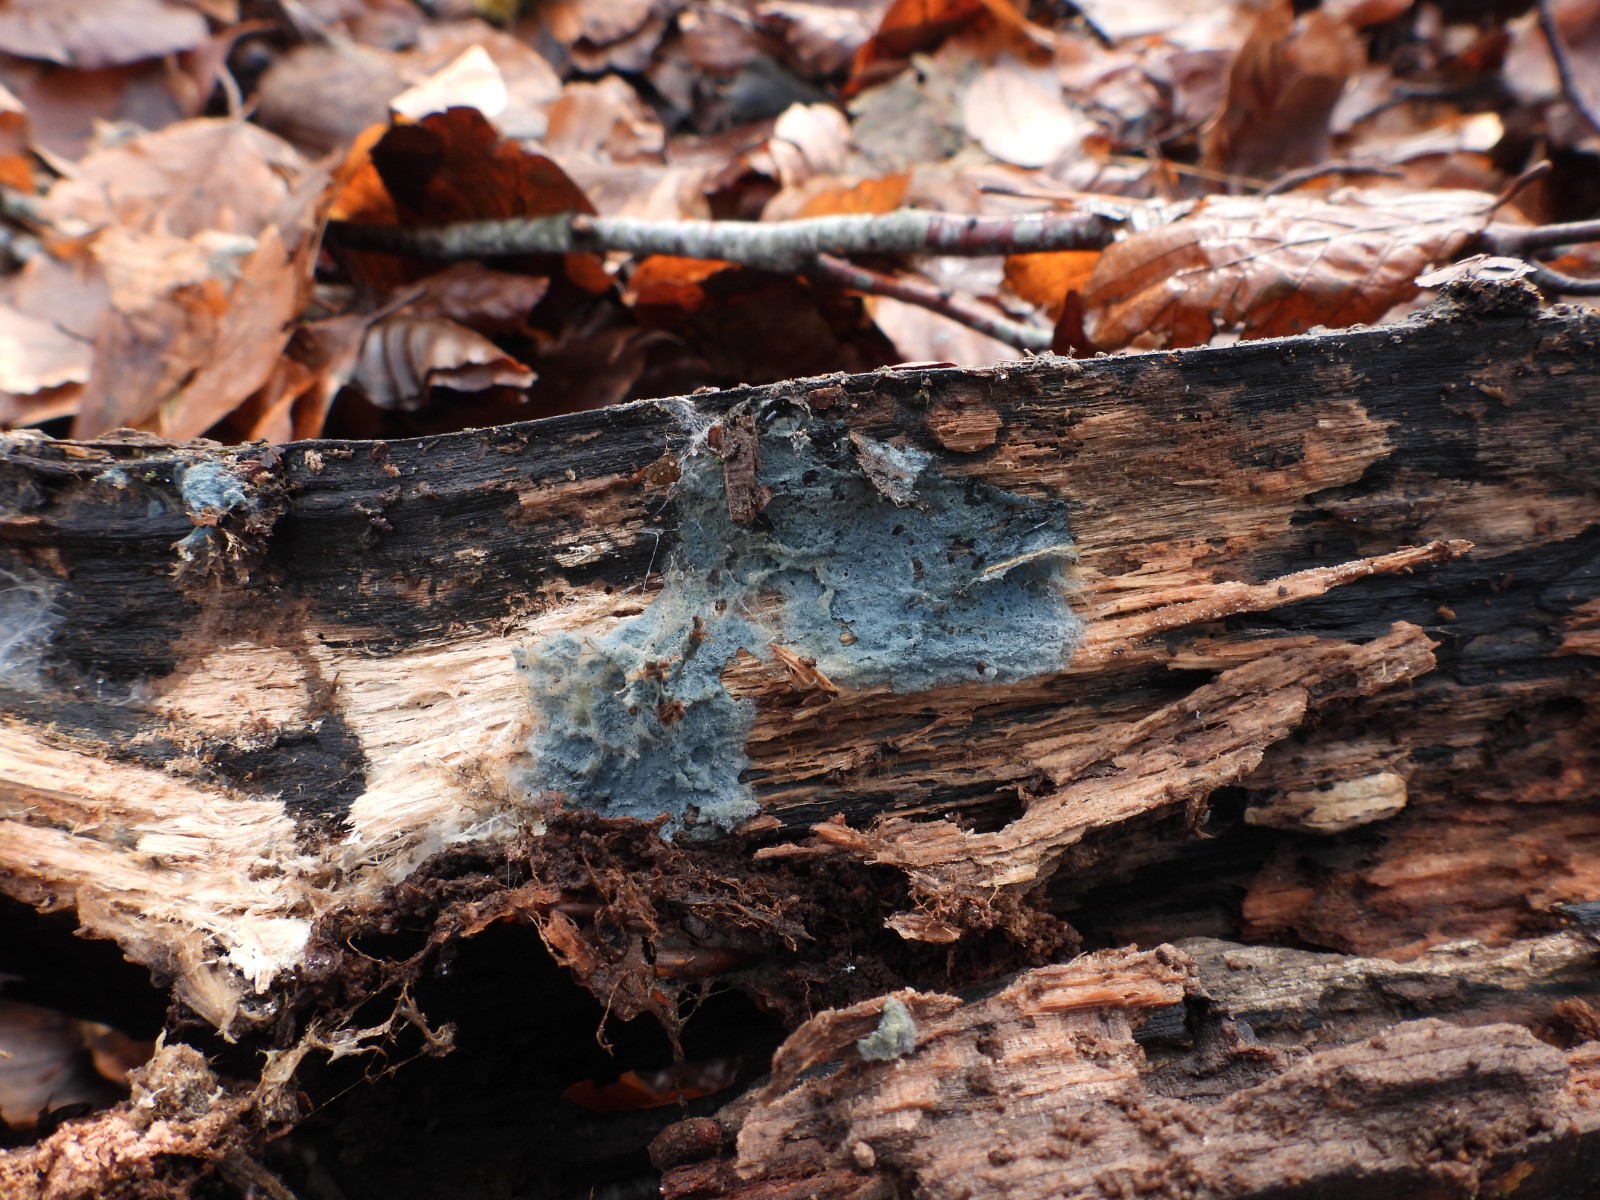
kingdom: Fungi
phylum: Basidiomycota
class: Agaricomycetes
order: Atheliales
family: Atheliaceae
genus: Byssocorticium
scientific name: Byssocorticium
